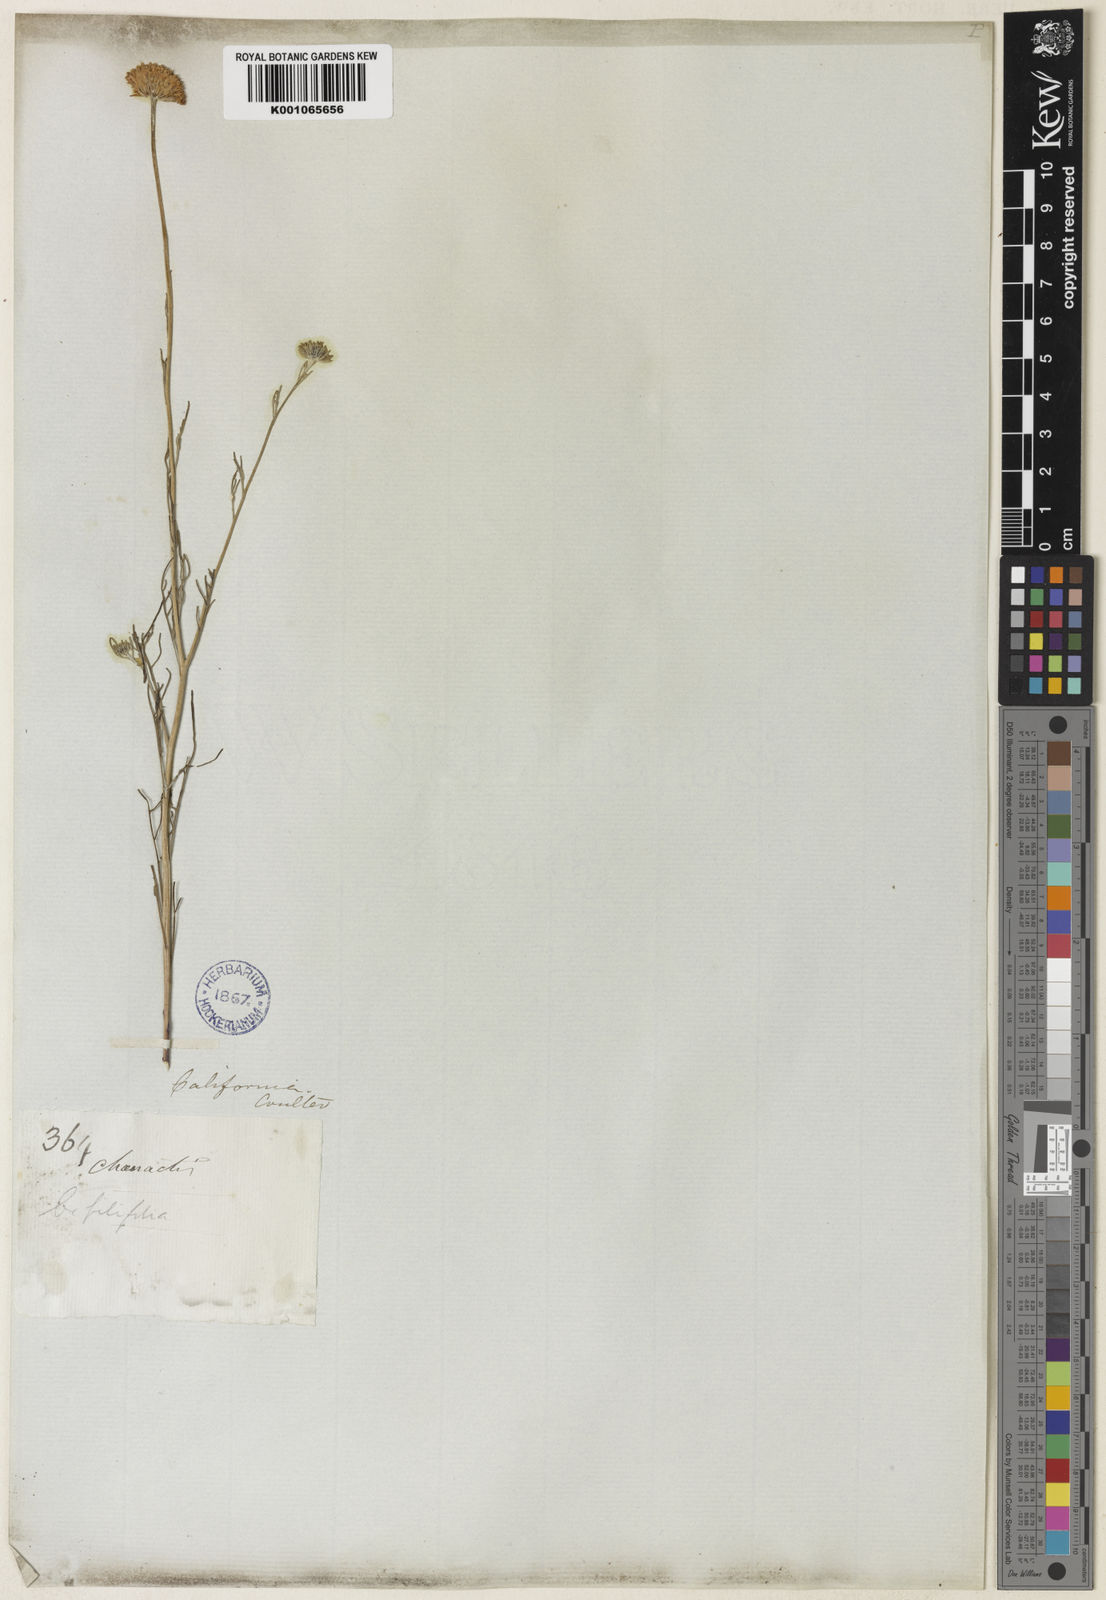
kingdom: Plantae
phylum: Tracheophyta
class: Magnoliopsida
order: Asterales
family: Asteraceae
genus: Chaenactis
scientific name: Chaenactis glabriuscula
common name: Yellow pincushion
